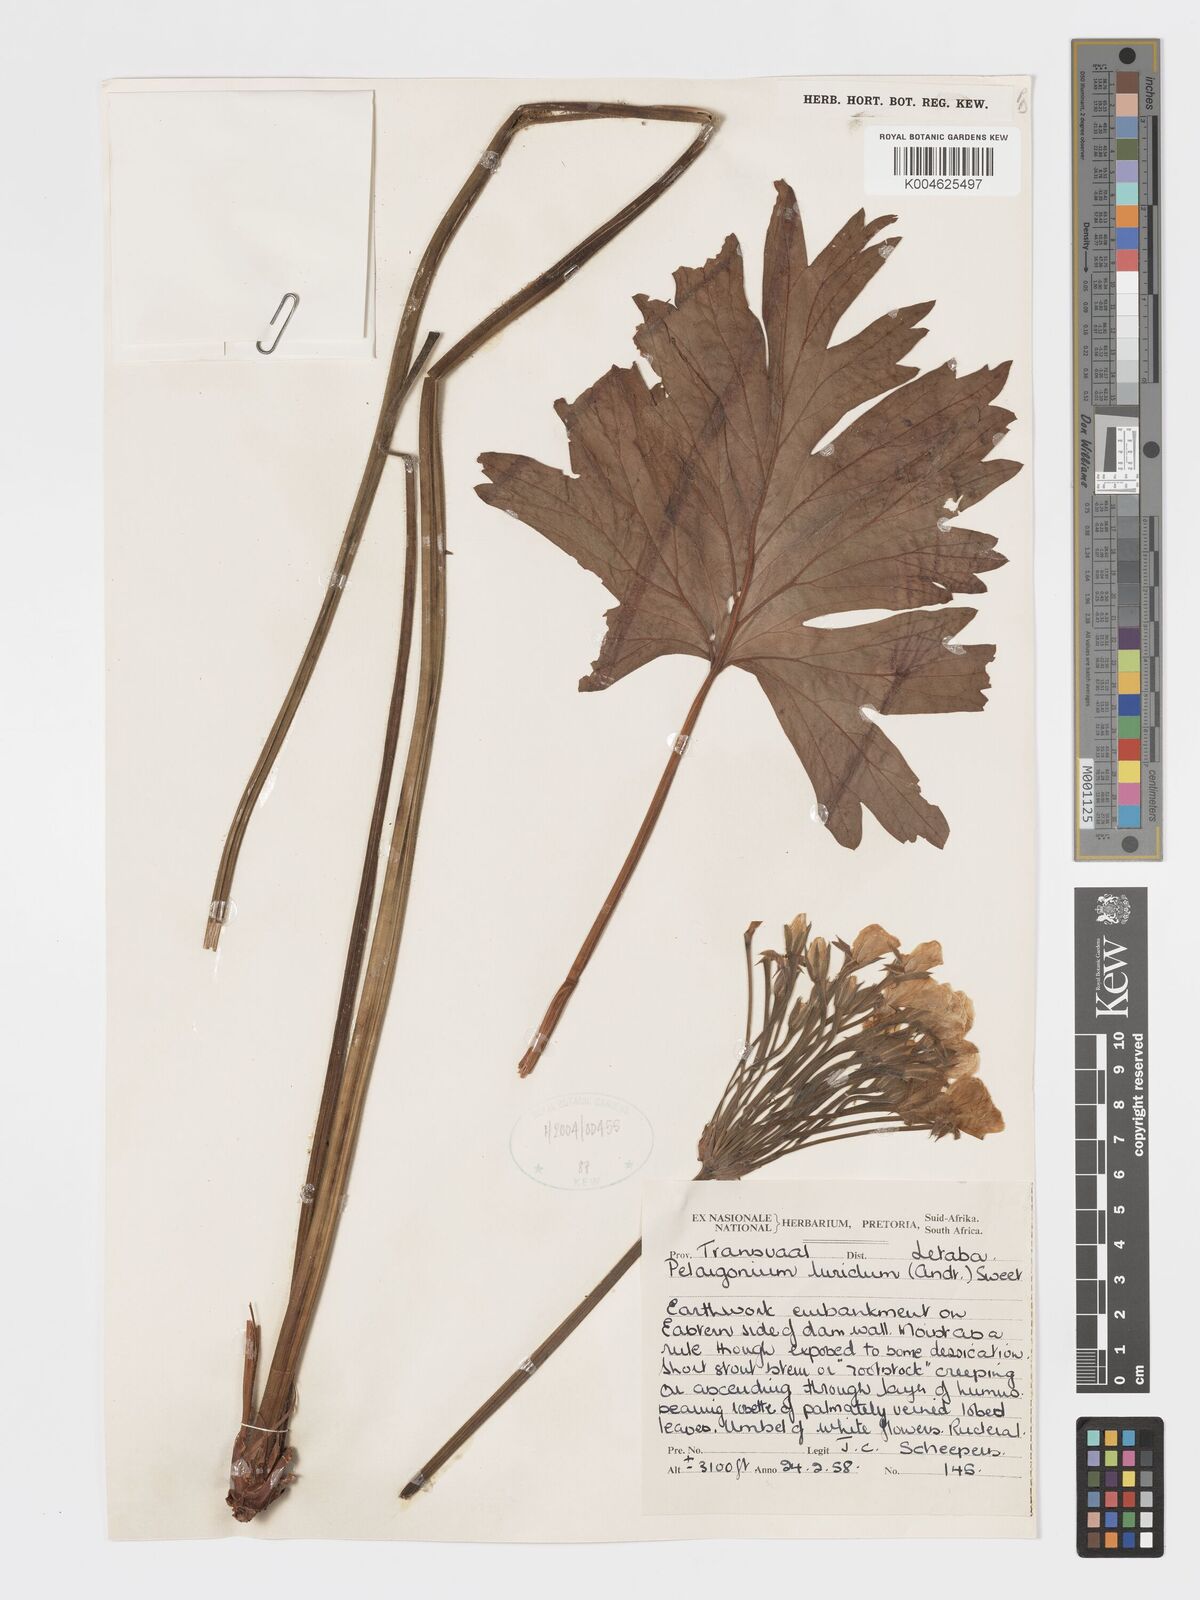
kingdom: Plantae
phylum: Tracheophyta
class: Magnoliopsida
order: Geraniales
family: Geraniaceae
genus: Pelargonium
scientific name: Pelargonium luridum
